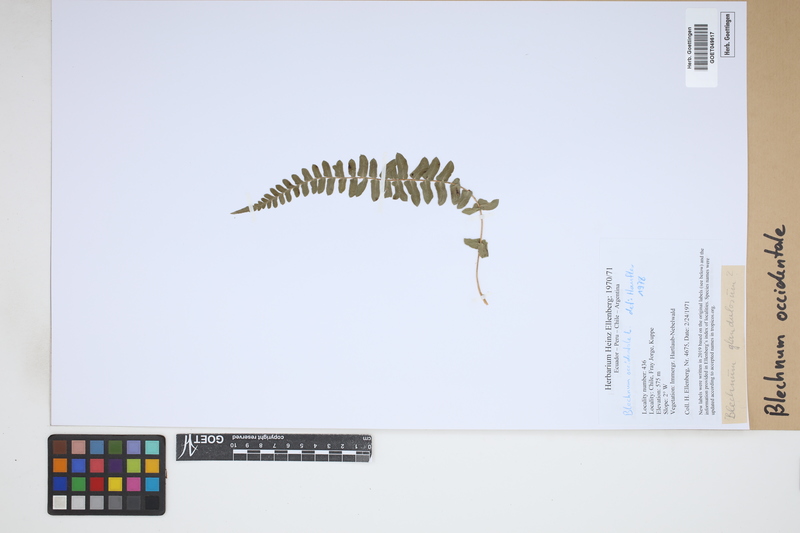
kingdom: Plantae
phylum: Tracheophyta
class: Polypodiopsida
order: Polypodiales
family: Blechnaceae
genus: Blechnum
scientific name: Blechnum occidentale
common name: Hammock fern
